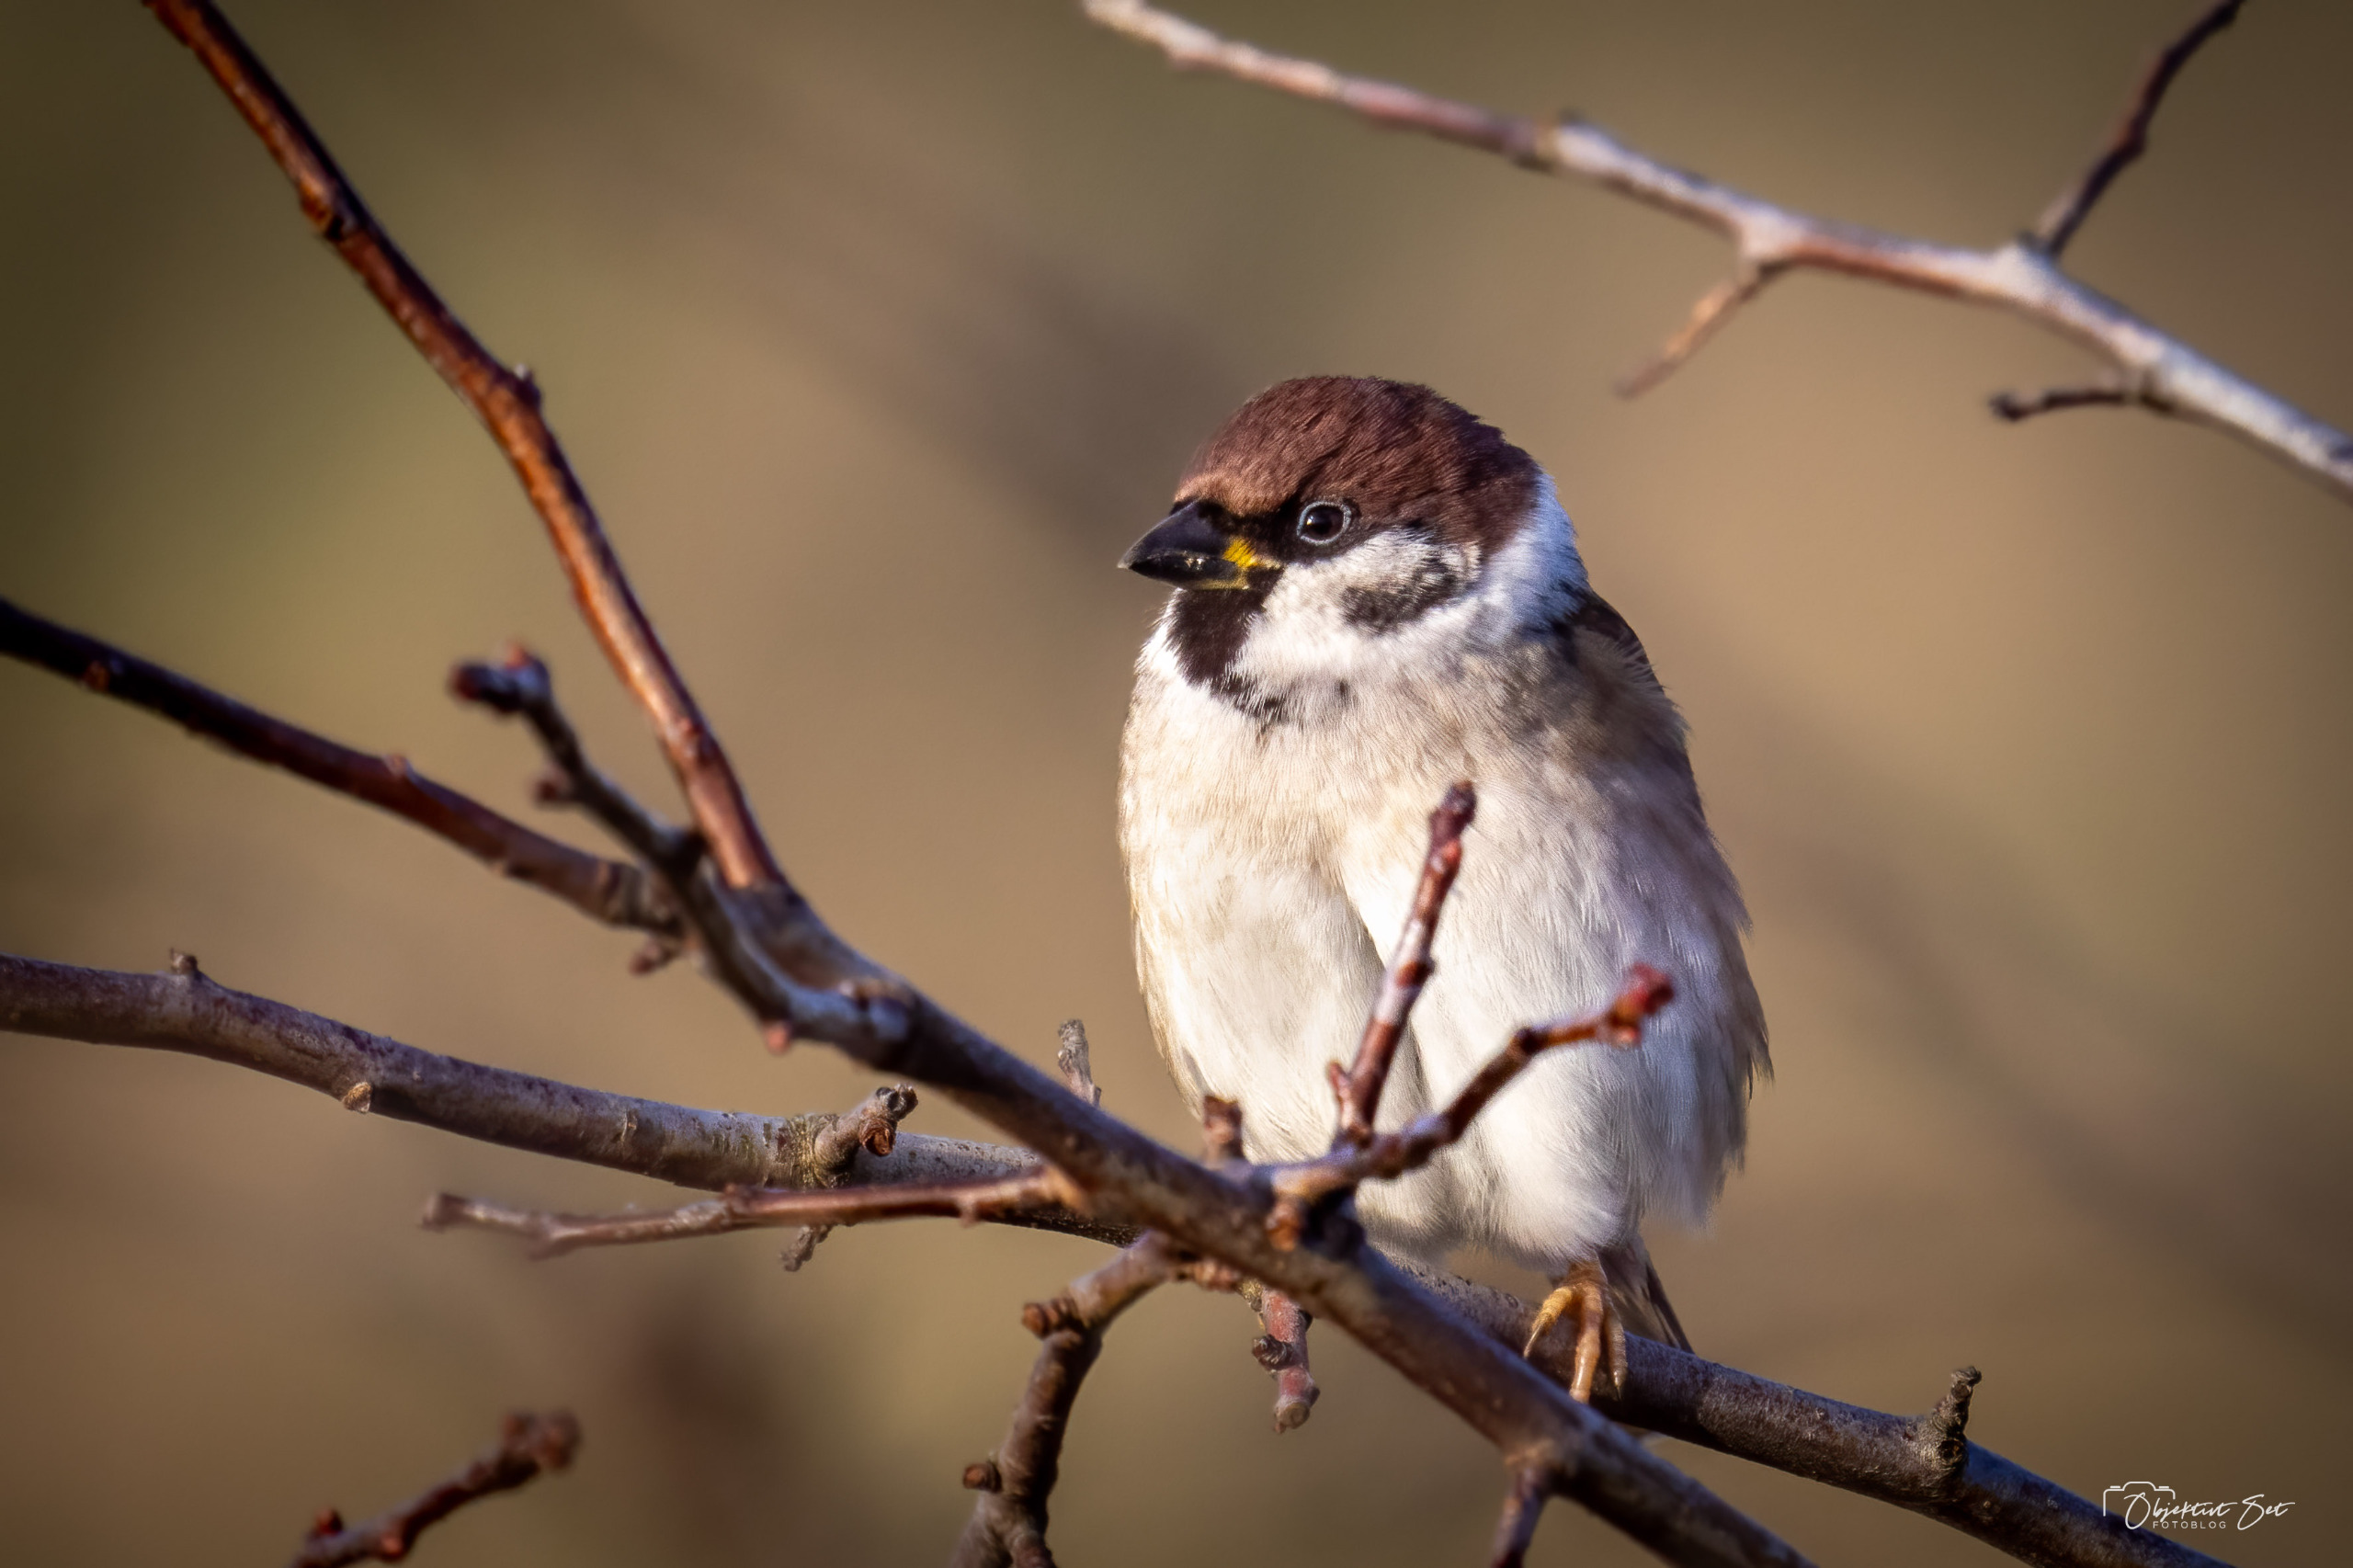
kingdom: Animalia
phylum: Chordata
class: Aves
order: Passeriformes
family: Passeridae
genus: Passer
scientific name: Passer montanus
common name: Skovspurv
